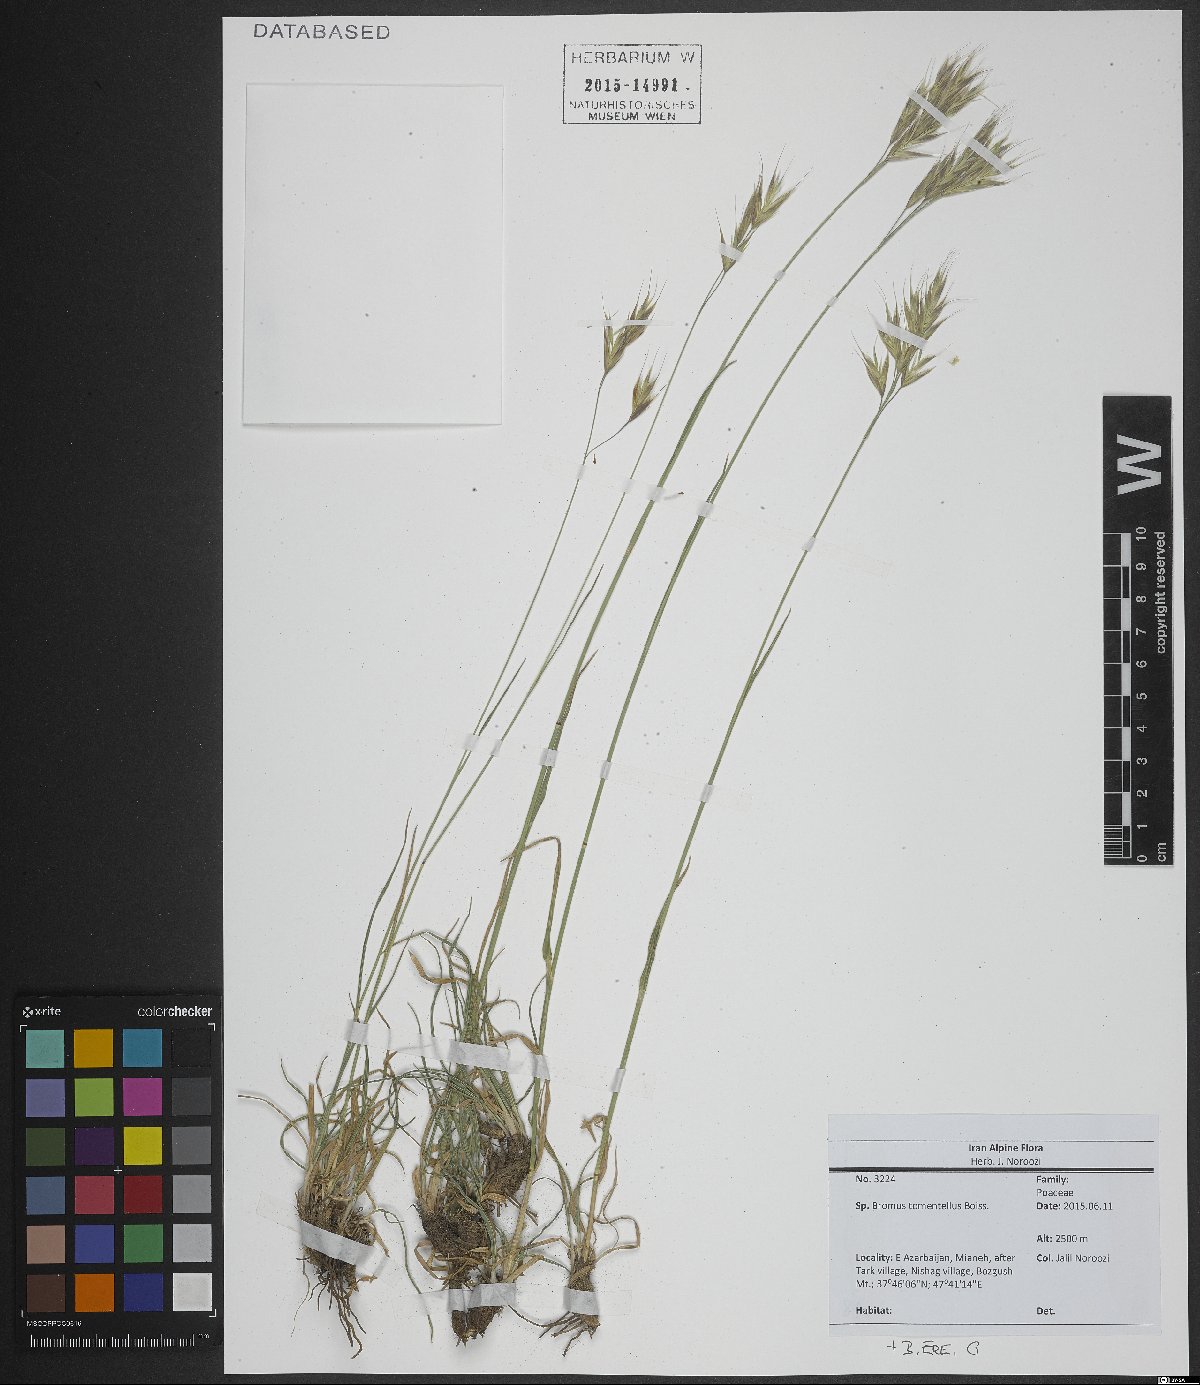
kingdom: Plantae
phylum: Tracheophyta
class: Liliopsida
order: Poales
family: Poaceae
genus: Bromus
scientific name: Bromus tomentellus
